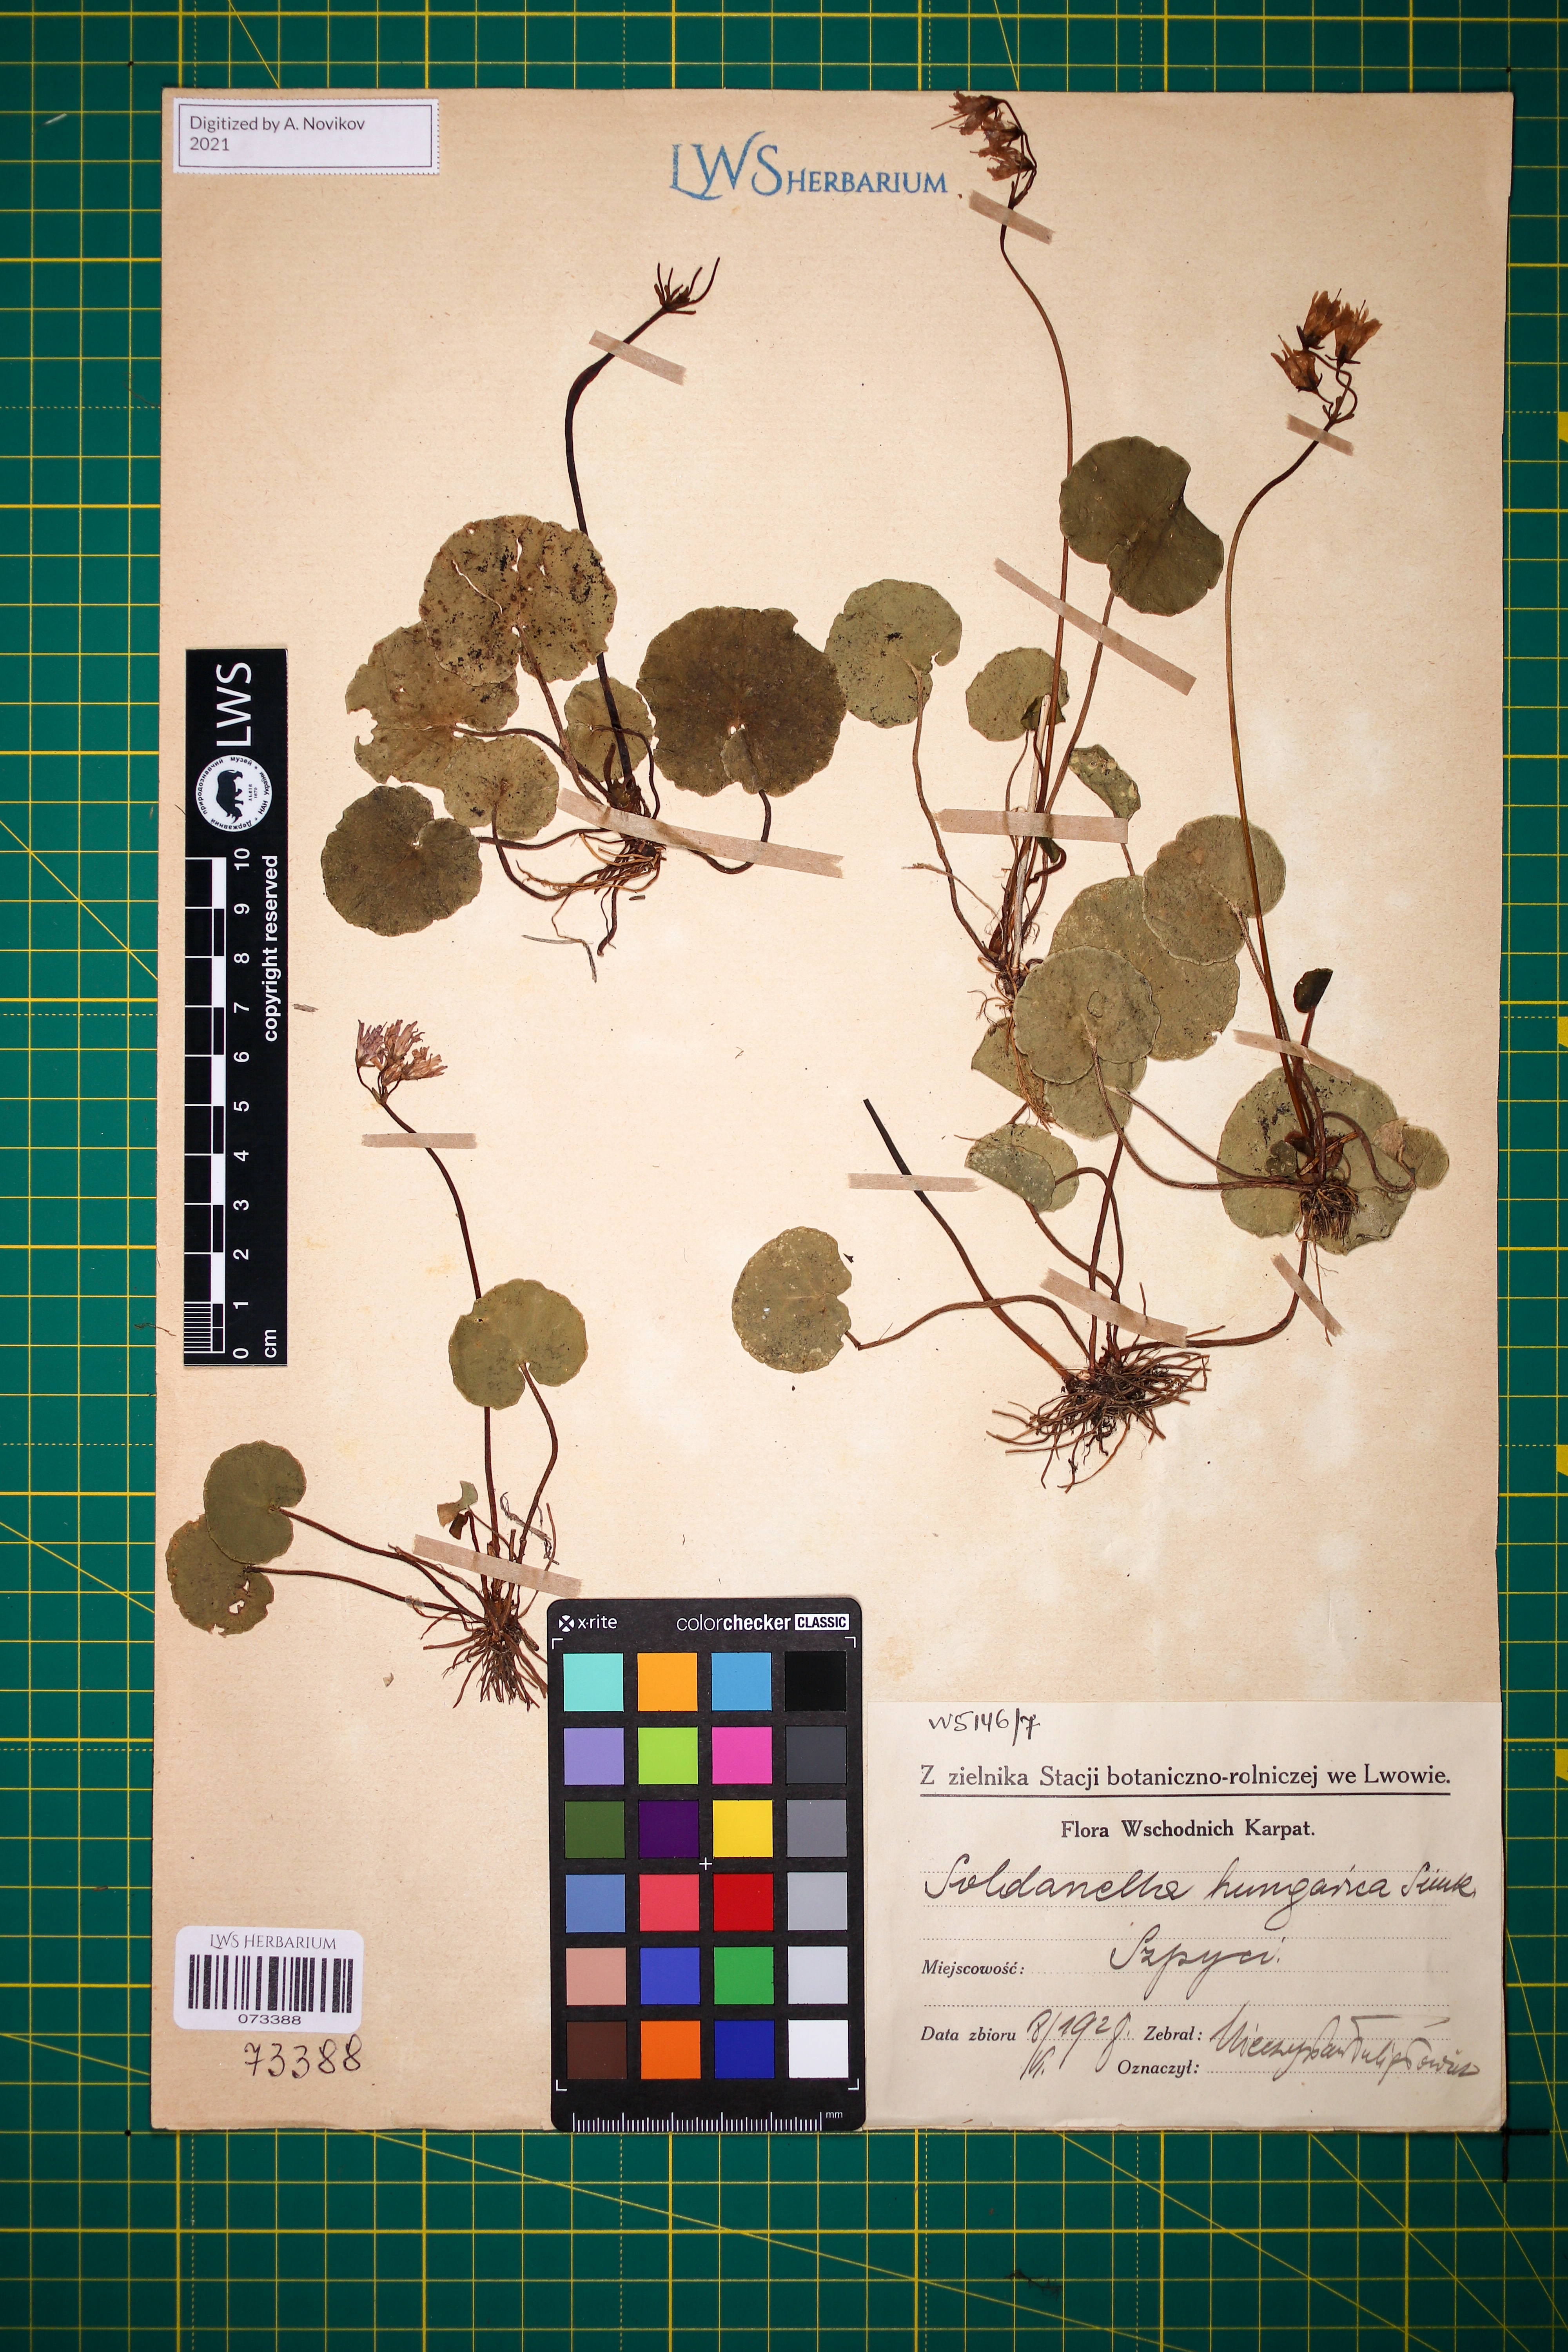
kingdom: Plantae
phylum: Tracheophyta
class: Magnoliopsida
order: Ericales
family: Primulaceae
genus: Soldanella
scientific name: Soldanella hungarica
